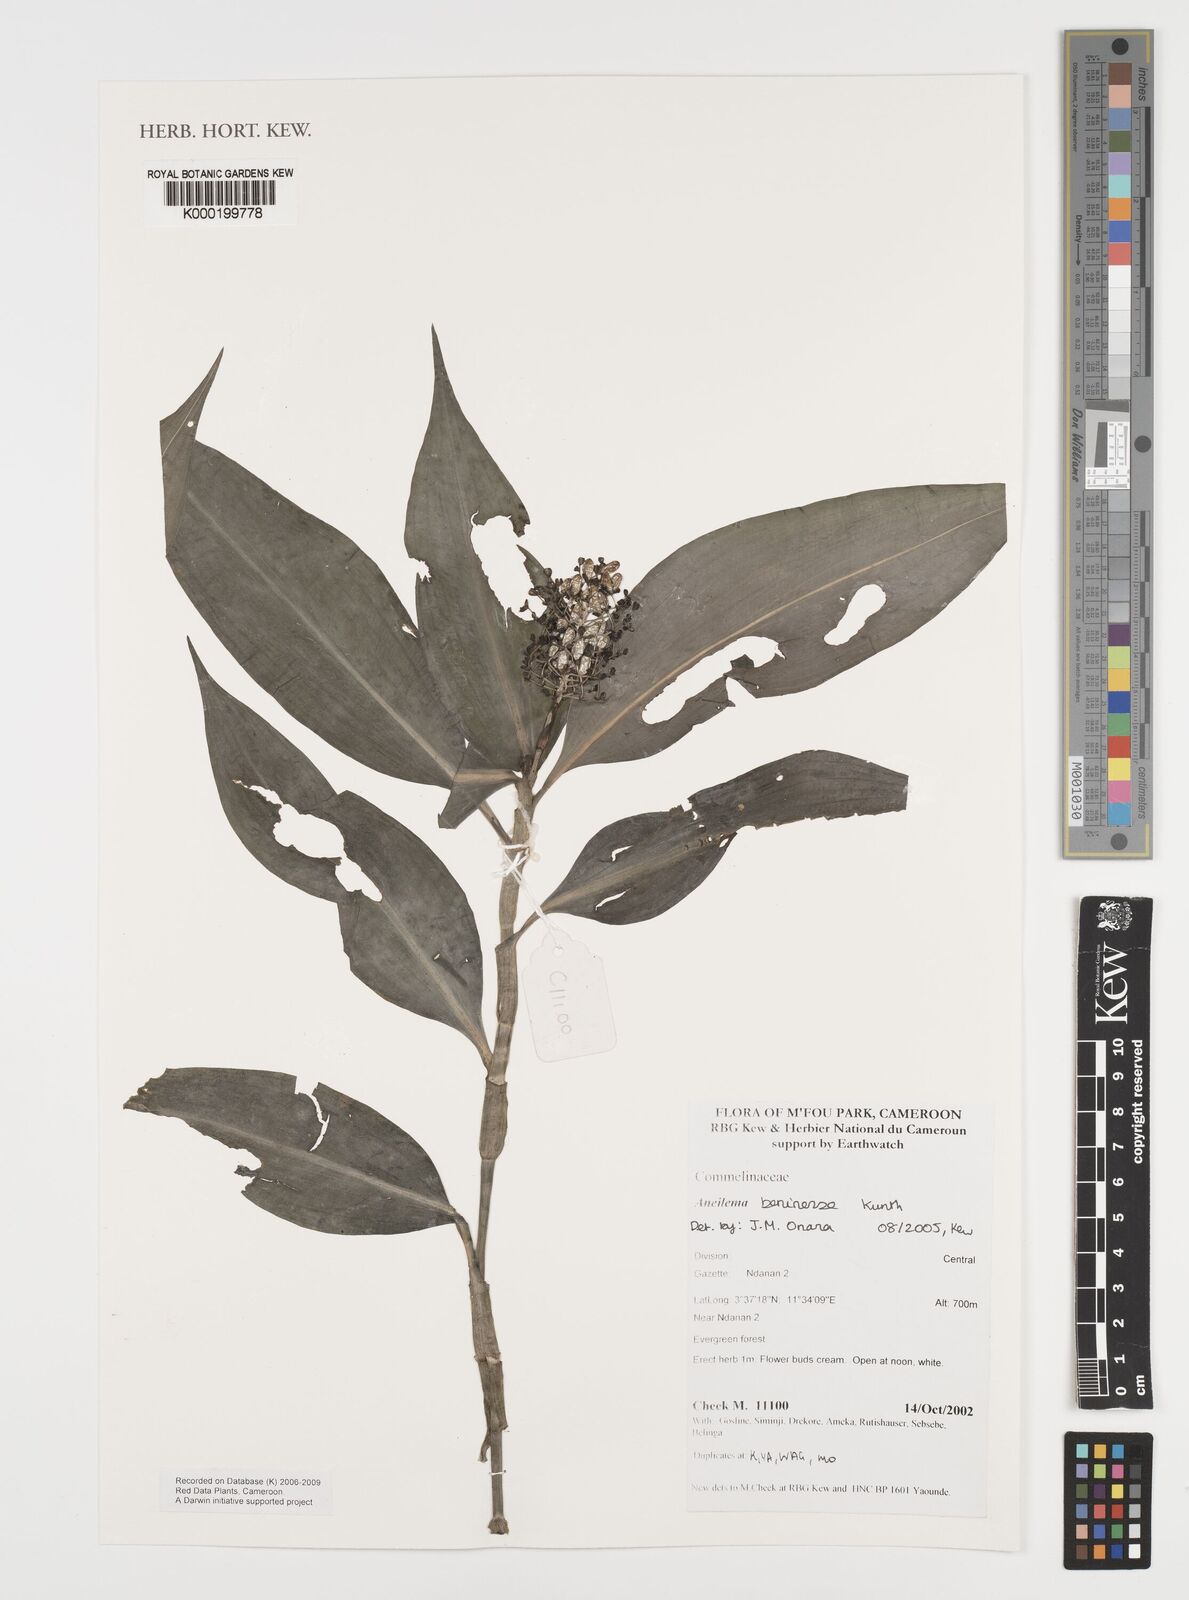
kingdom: Plantae
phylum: Tracheophyta
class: Liliopsida
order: Commelinales
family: Commelinaceae
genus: Aneilema
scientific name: Aneilema beniniense
